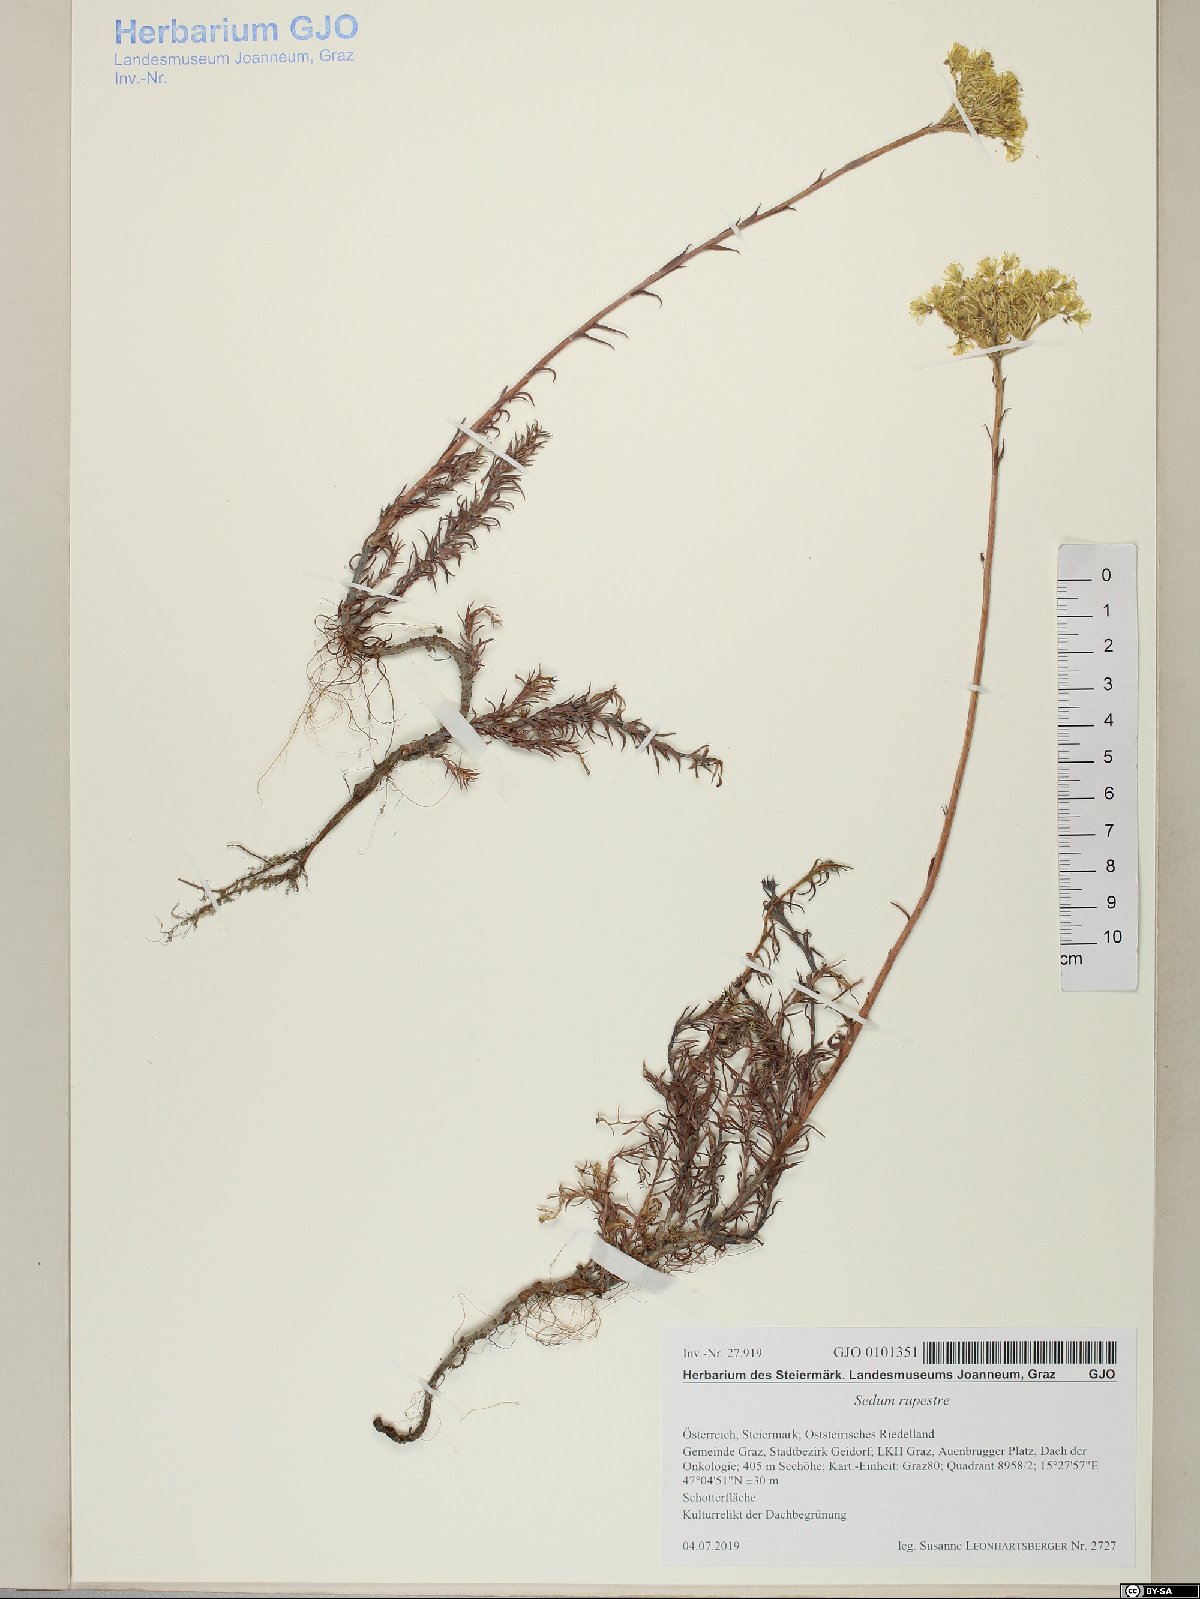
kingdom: Plantae
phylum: Tracheophyta
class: Magnoliopsida
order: Saxifragales
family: Crassulaceae
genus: Petrosedum
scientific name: Petrosedum rupestre
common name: Jenny's stonecrop
